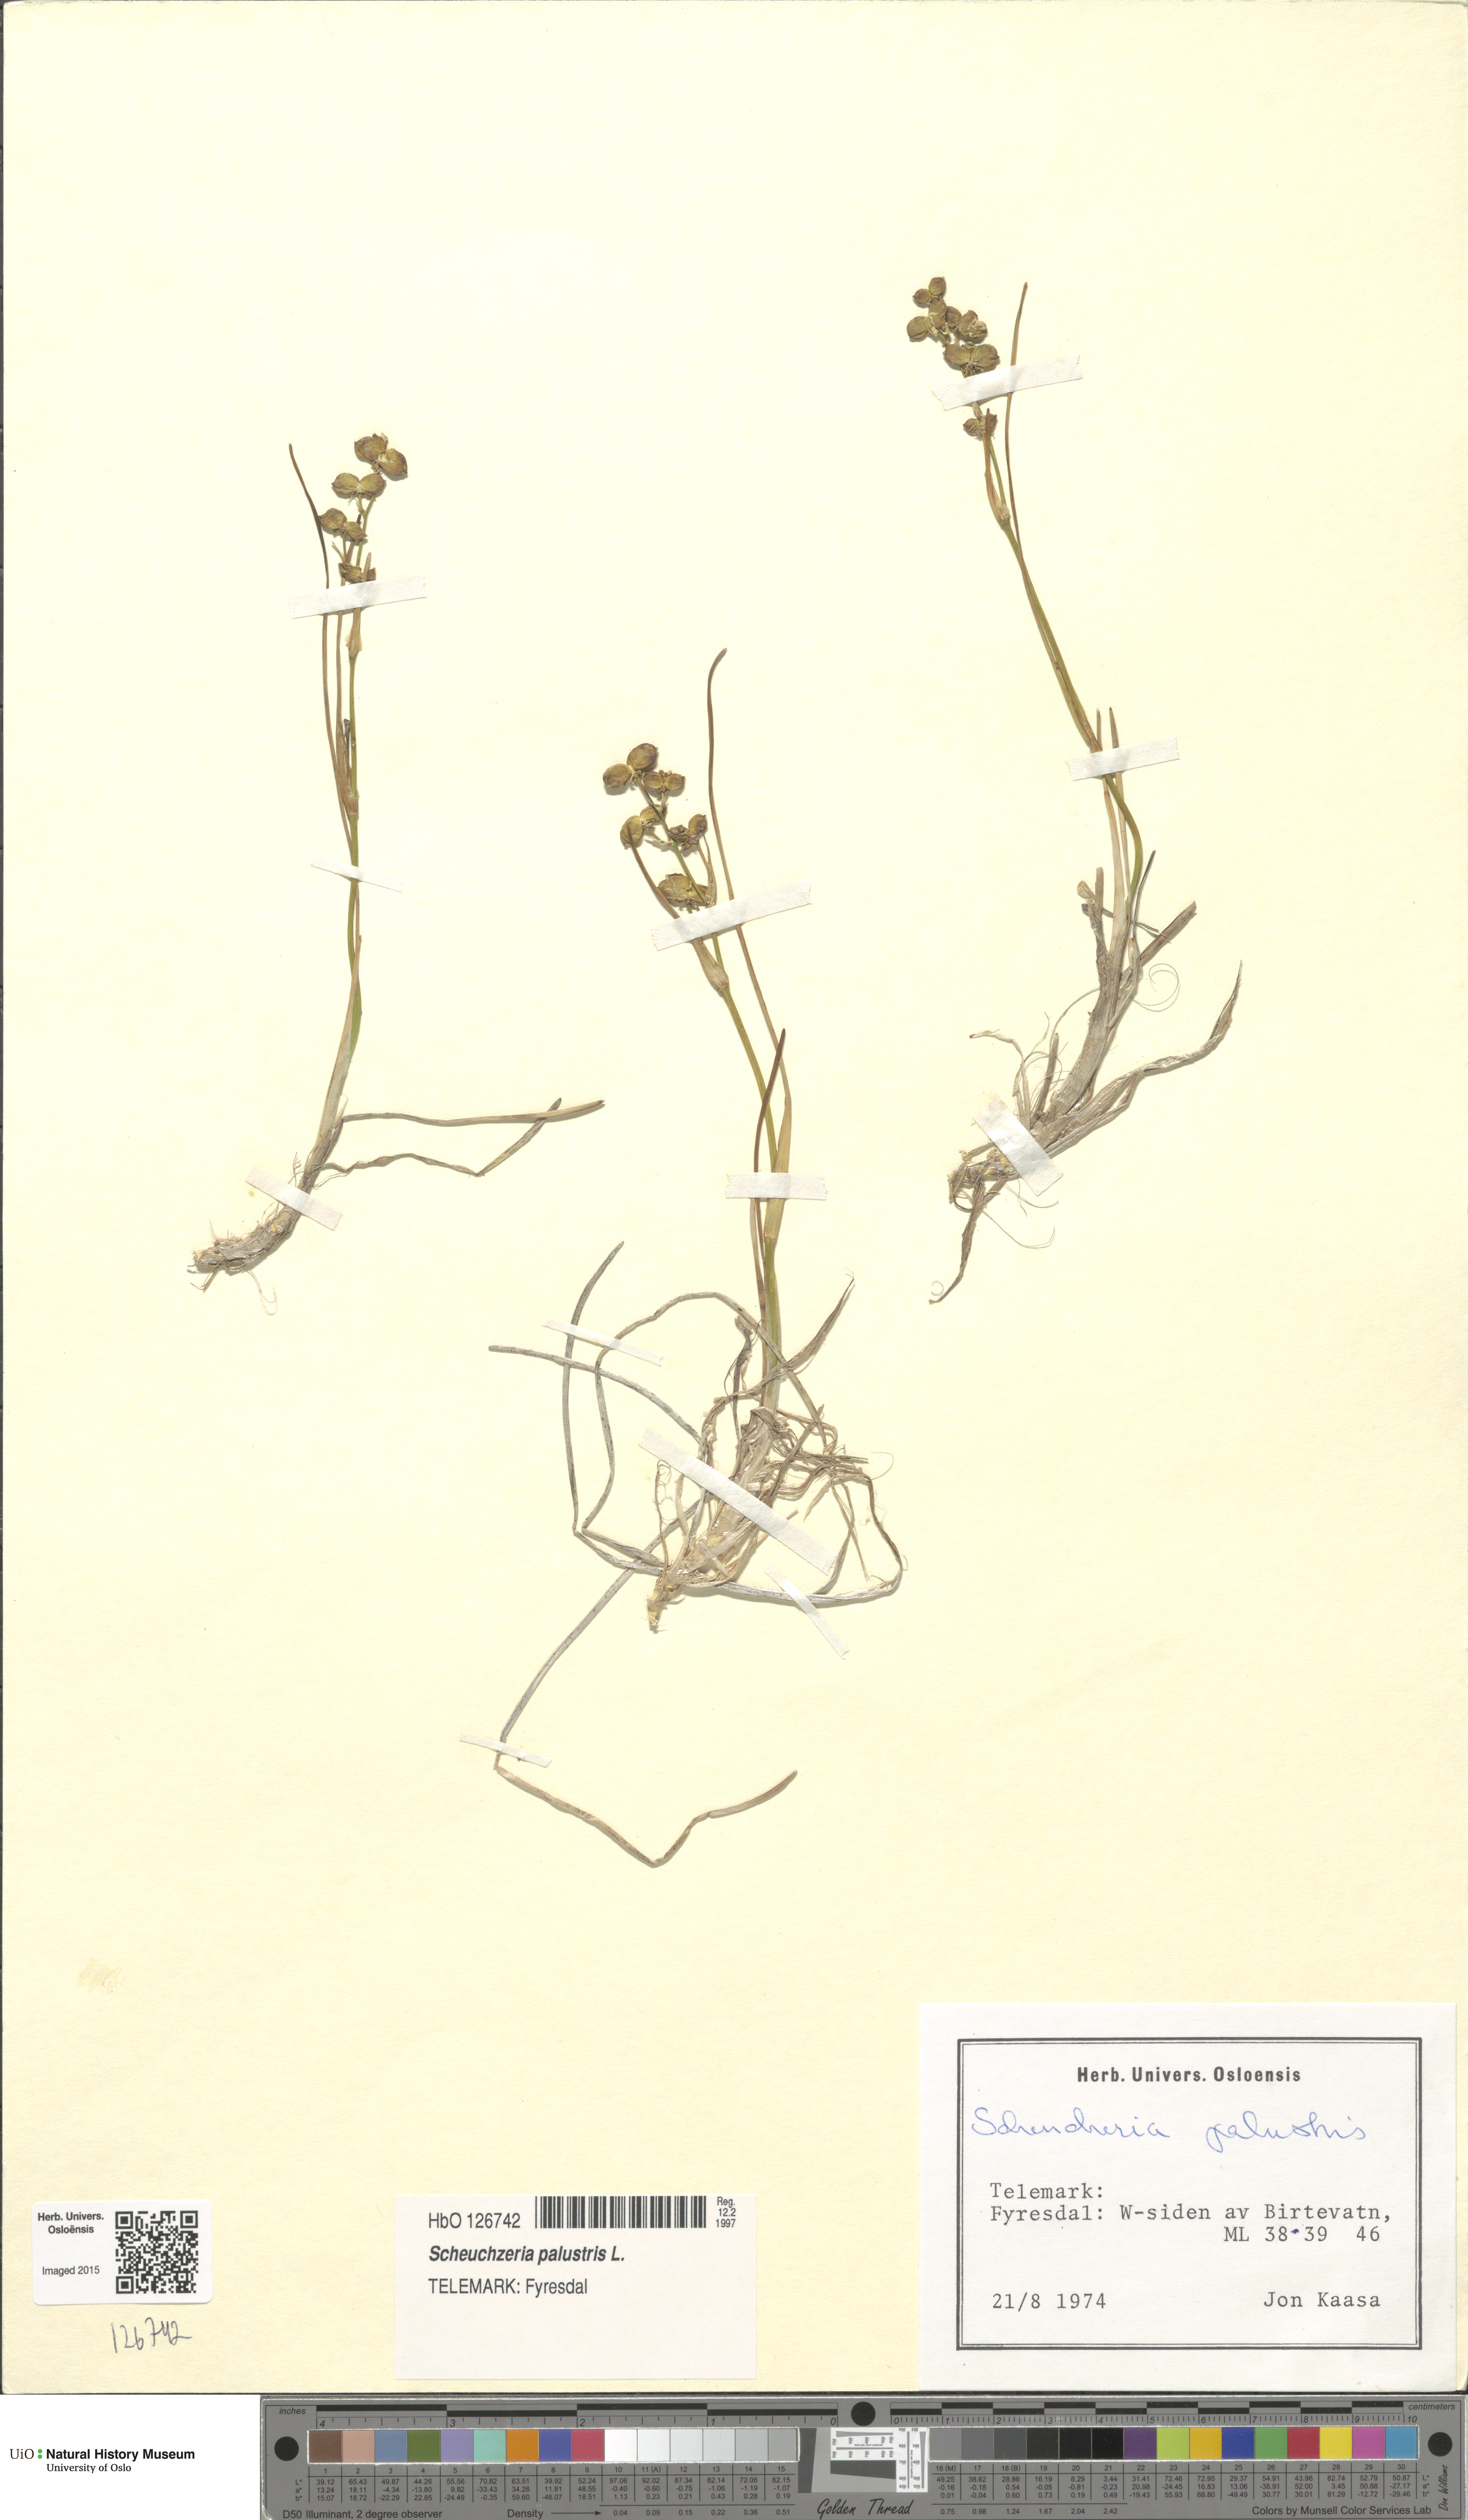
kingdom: Plantae
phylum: Tracheophyta
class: Liliopsida
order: Alismatales
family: Scheuchzeriaceae
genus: Scheuchzeria
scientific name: Scheuchzeria palustris
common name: Rannoch-rush
